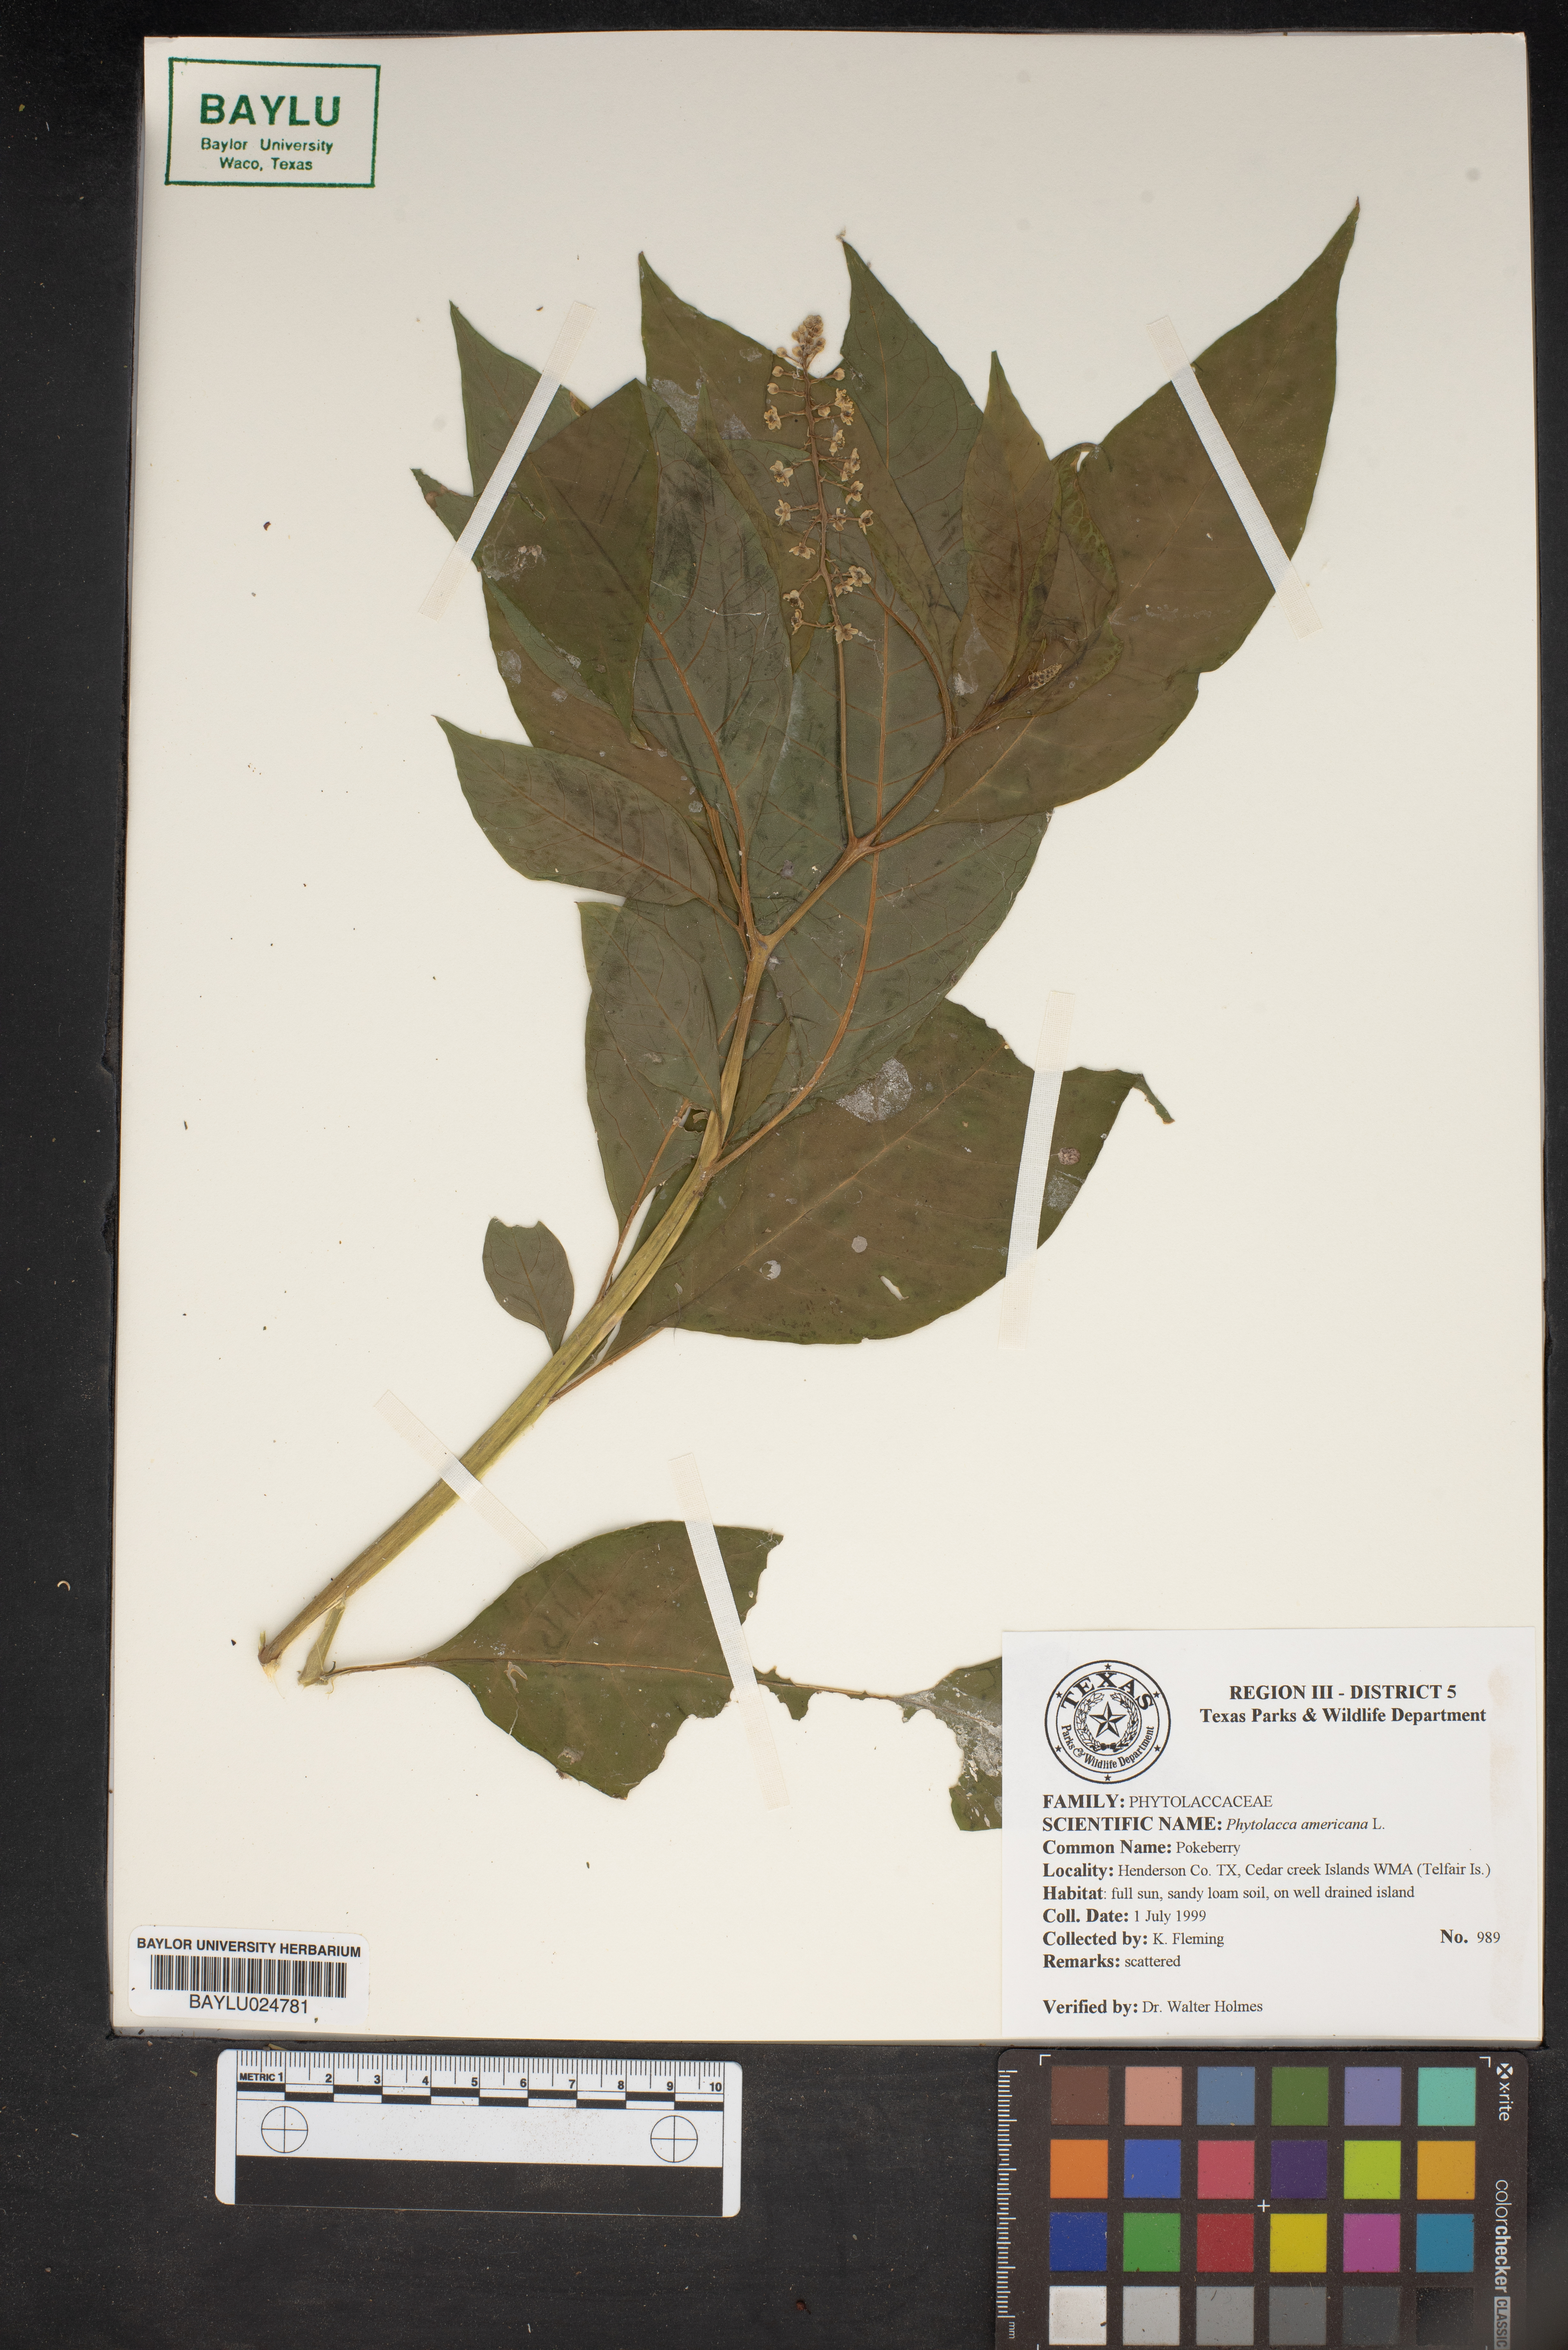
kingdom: Plantae
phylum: Tracheophyta
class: Magnoliopsida
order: Caryophyllales
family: Phytolaccaceae
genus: Phytolacca
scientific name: Phytolacca americana
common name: American pokeweed
